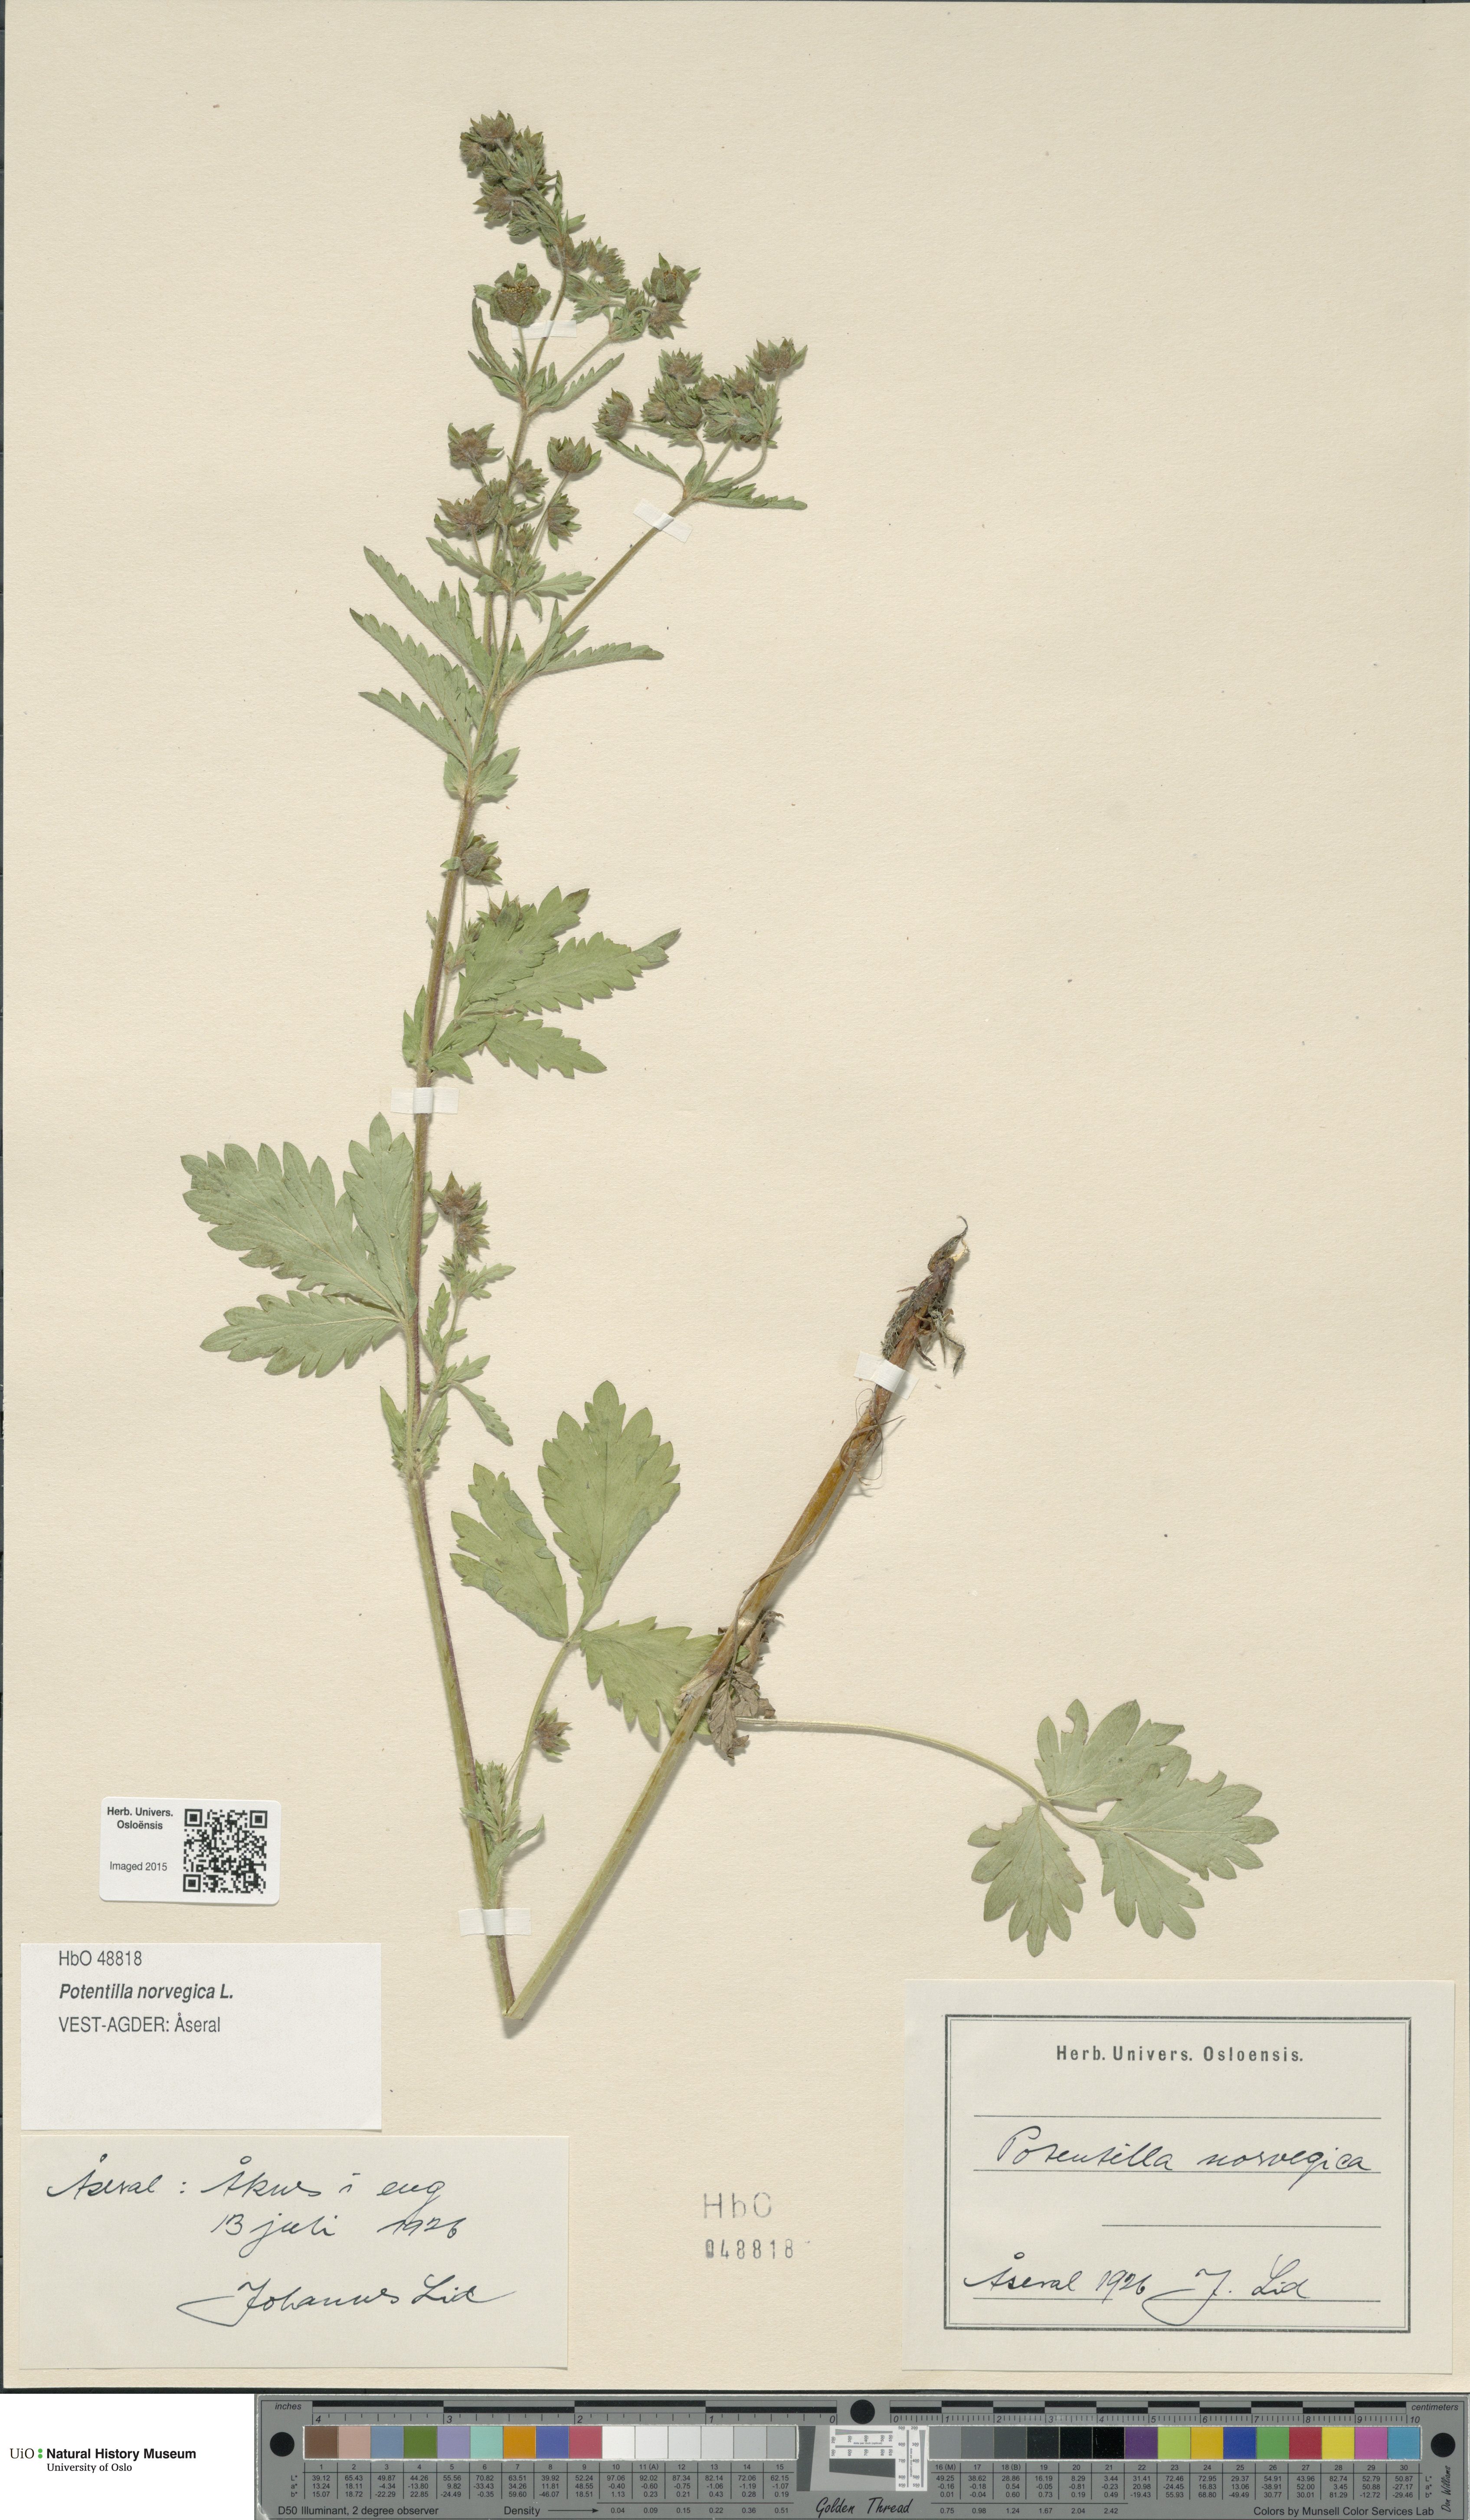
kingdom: Plantae
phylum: Tracheophyta
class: Magnoliopsida
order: Rosales
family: Rosaceae
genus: Potentilla
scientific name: Potentilla norvegica
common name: Ternate-leaved cinquefoil
